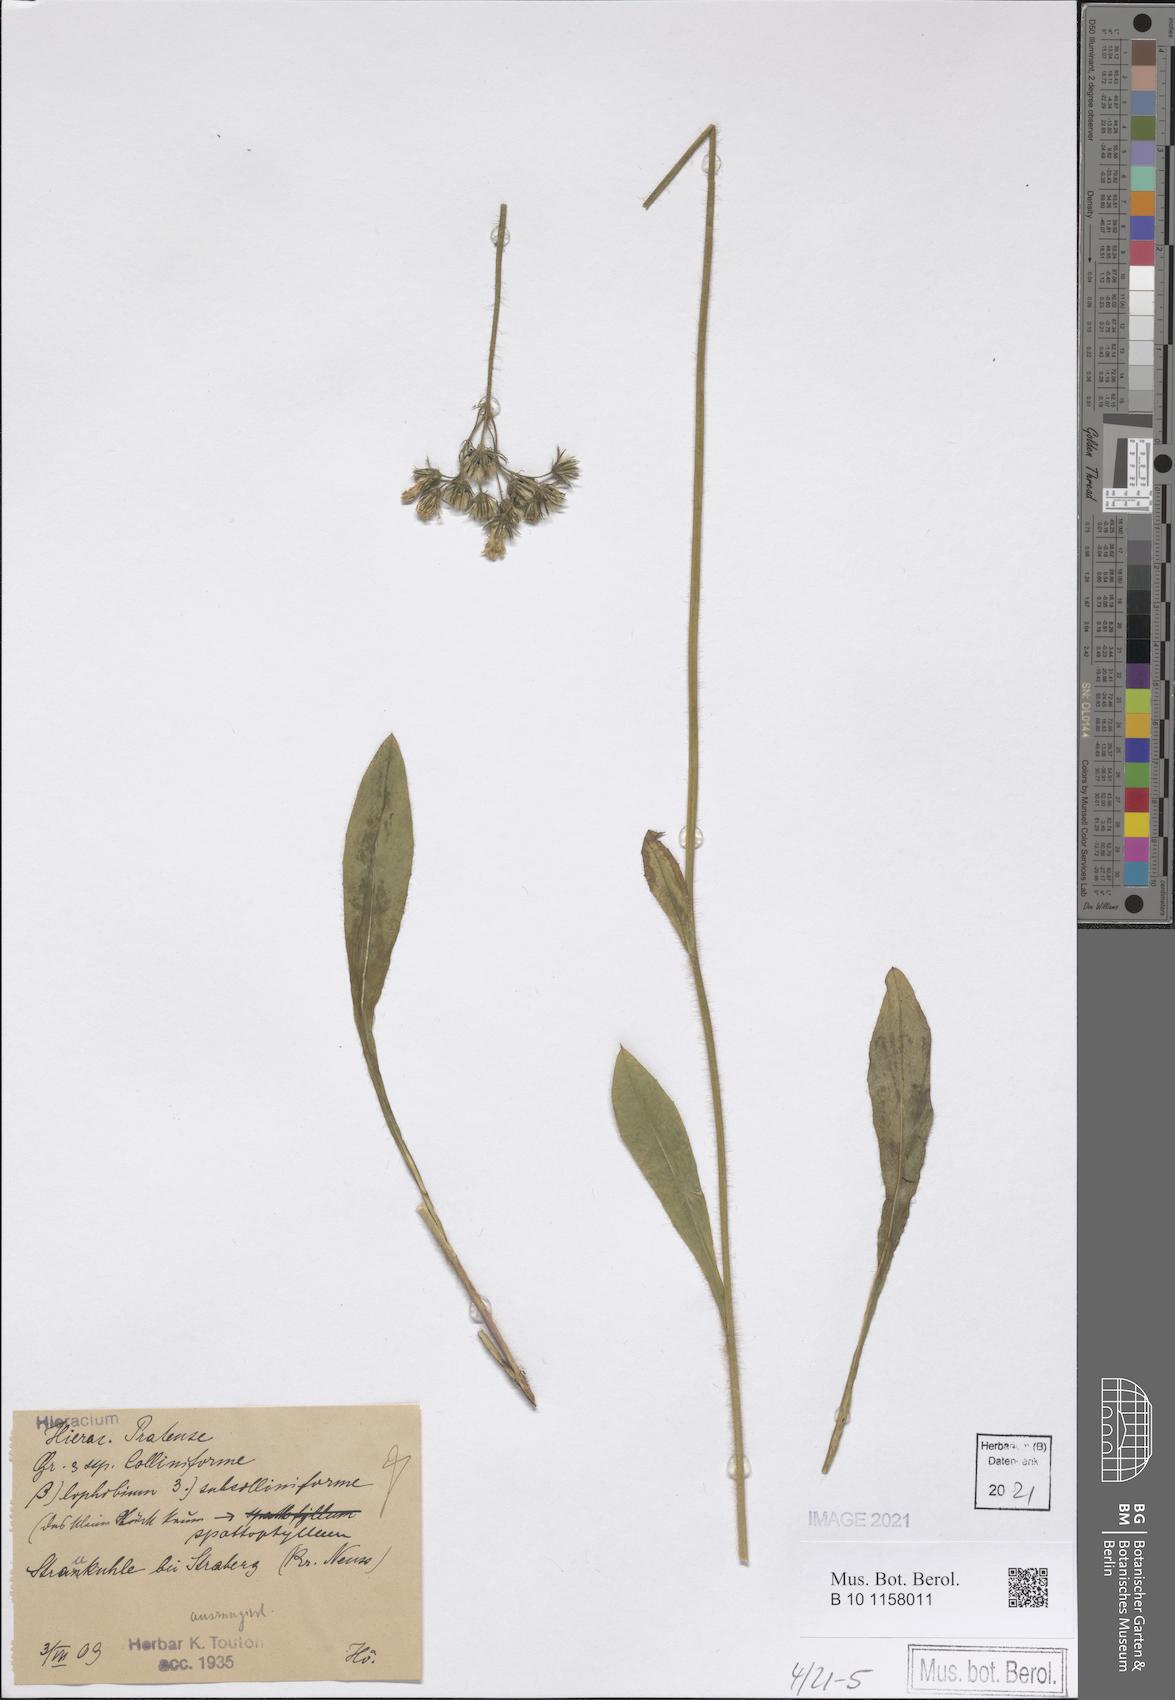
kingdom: Plantae
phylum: Tracheophyta
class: Magnoliopsida
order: Asterales
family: Asteraceae
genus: Pilosella
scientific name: Pilosella caespitosa
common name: Yellow fox-and-cubs
